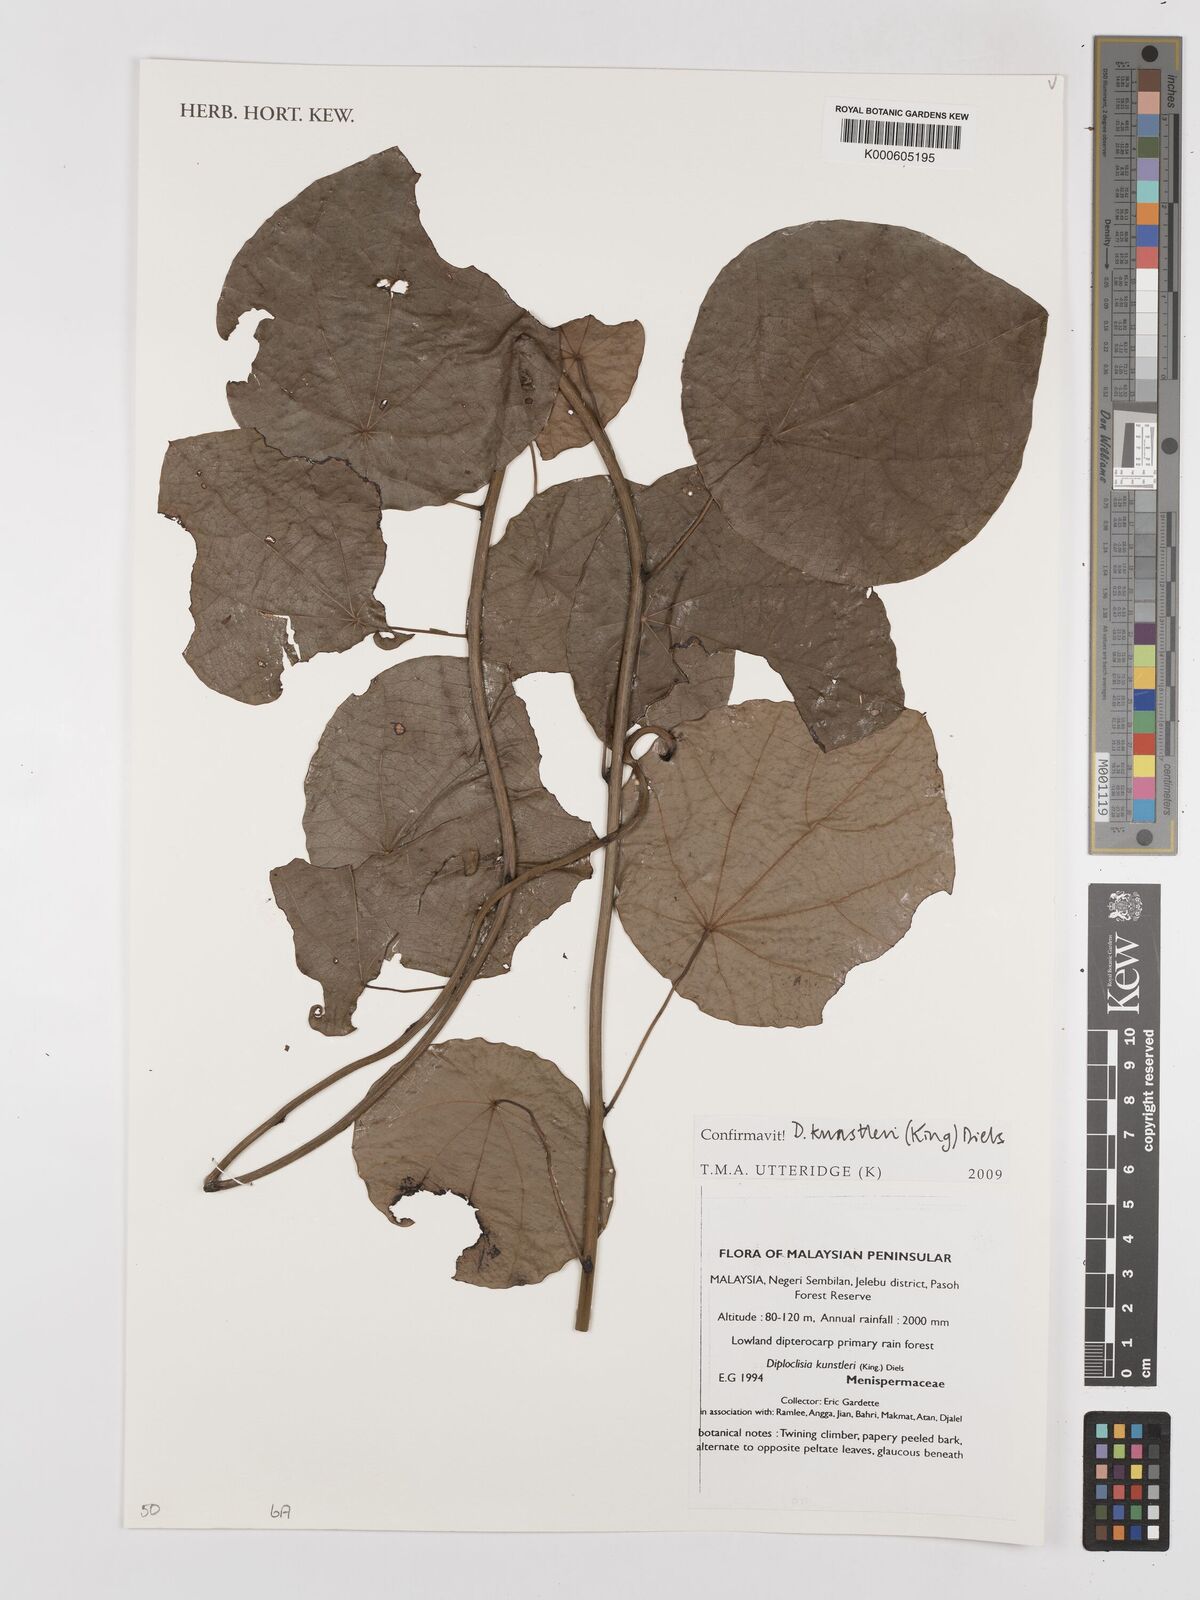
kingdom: Plantae
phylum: Tracheophyta
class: Magnoliopsida
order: Ranunculales
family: Menispermaceae
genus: Diploclisia
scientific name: Diploclisia glaucescens
